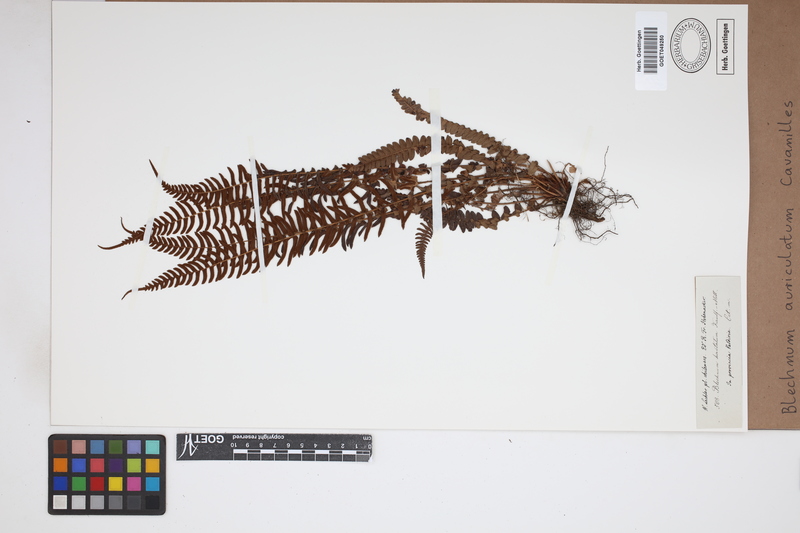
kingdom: Plantae
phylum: Tracheophyta
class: Polypodiopsida
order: Polypodiales
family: Blechnaceae
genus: Blechnum
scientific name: Blechnum auriculatum
